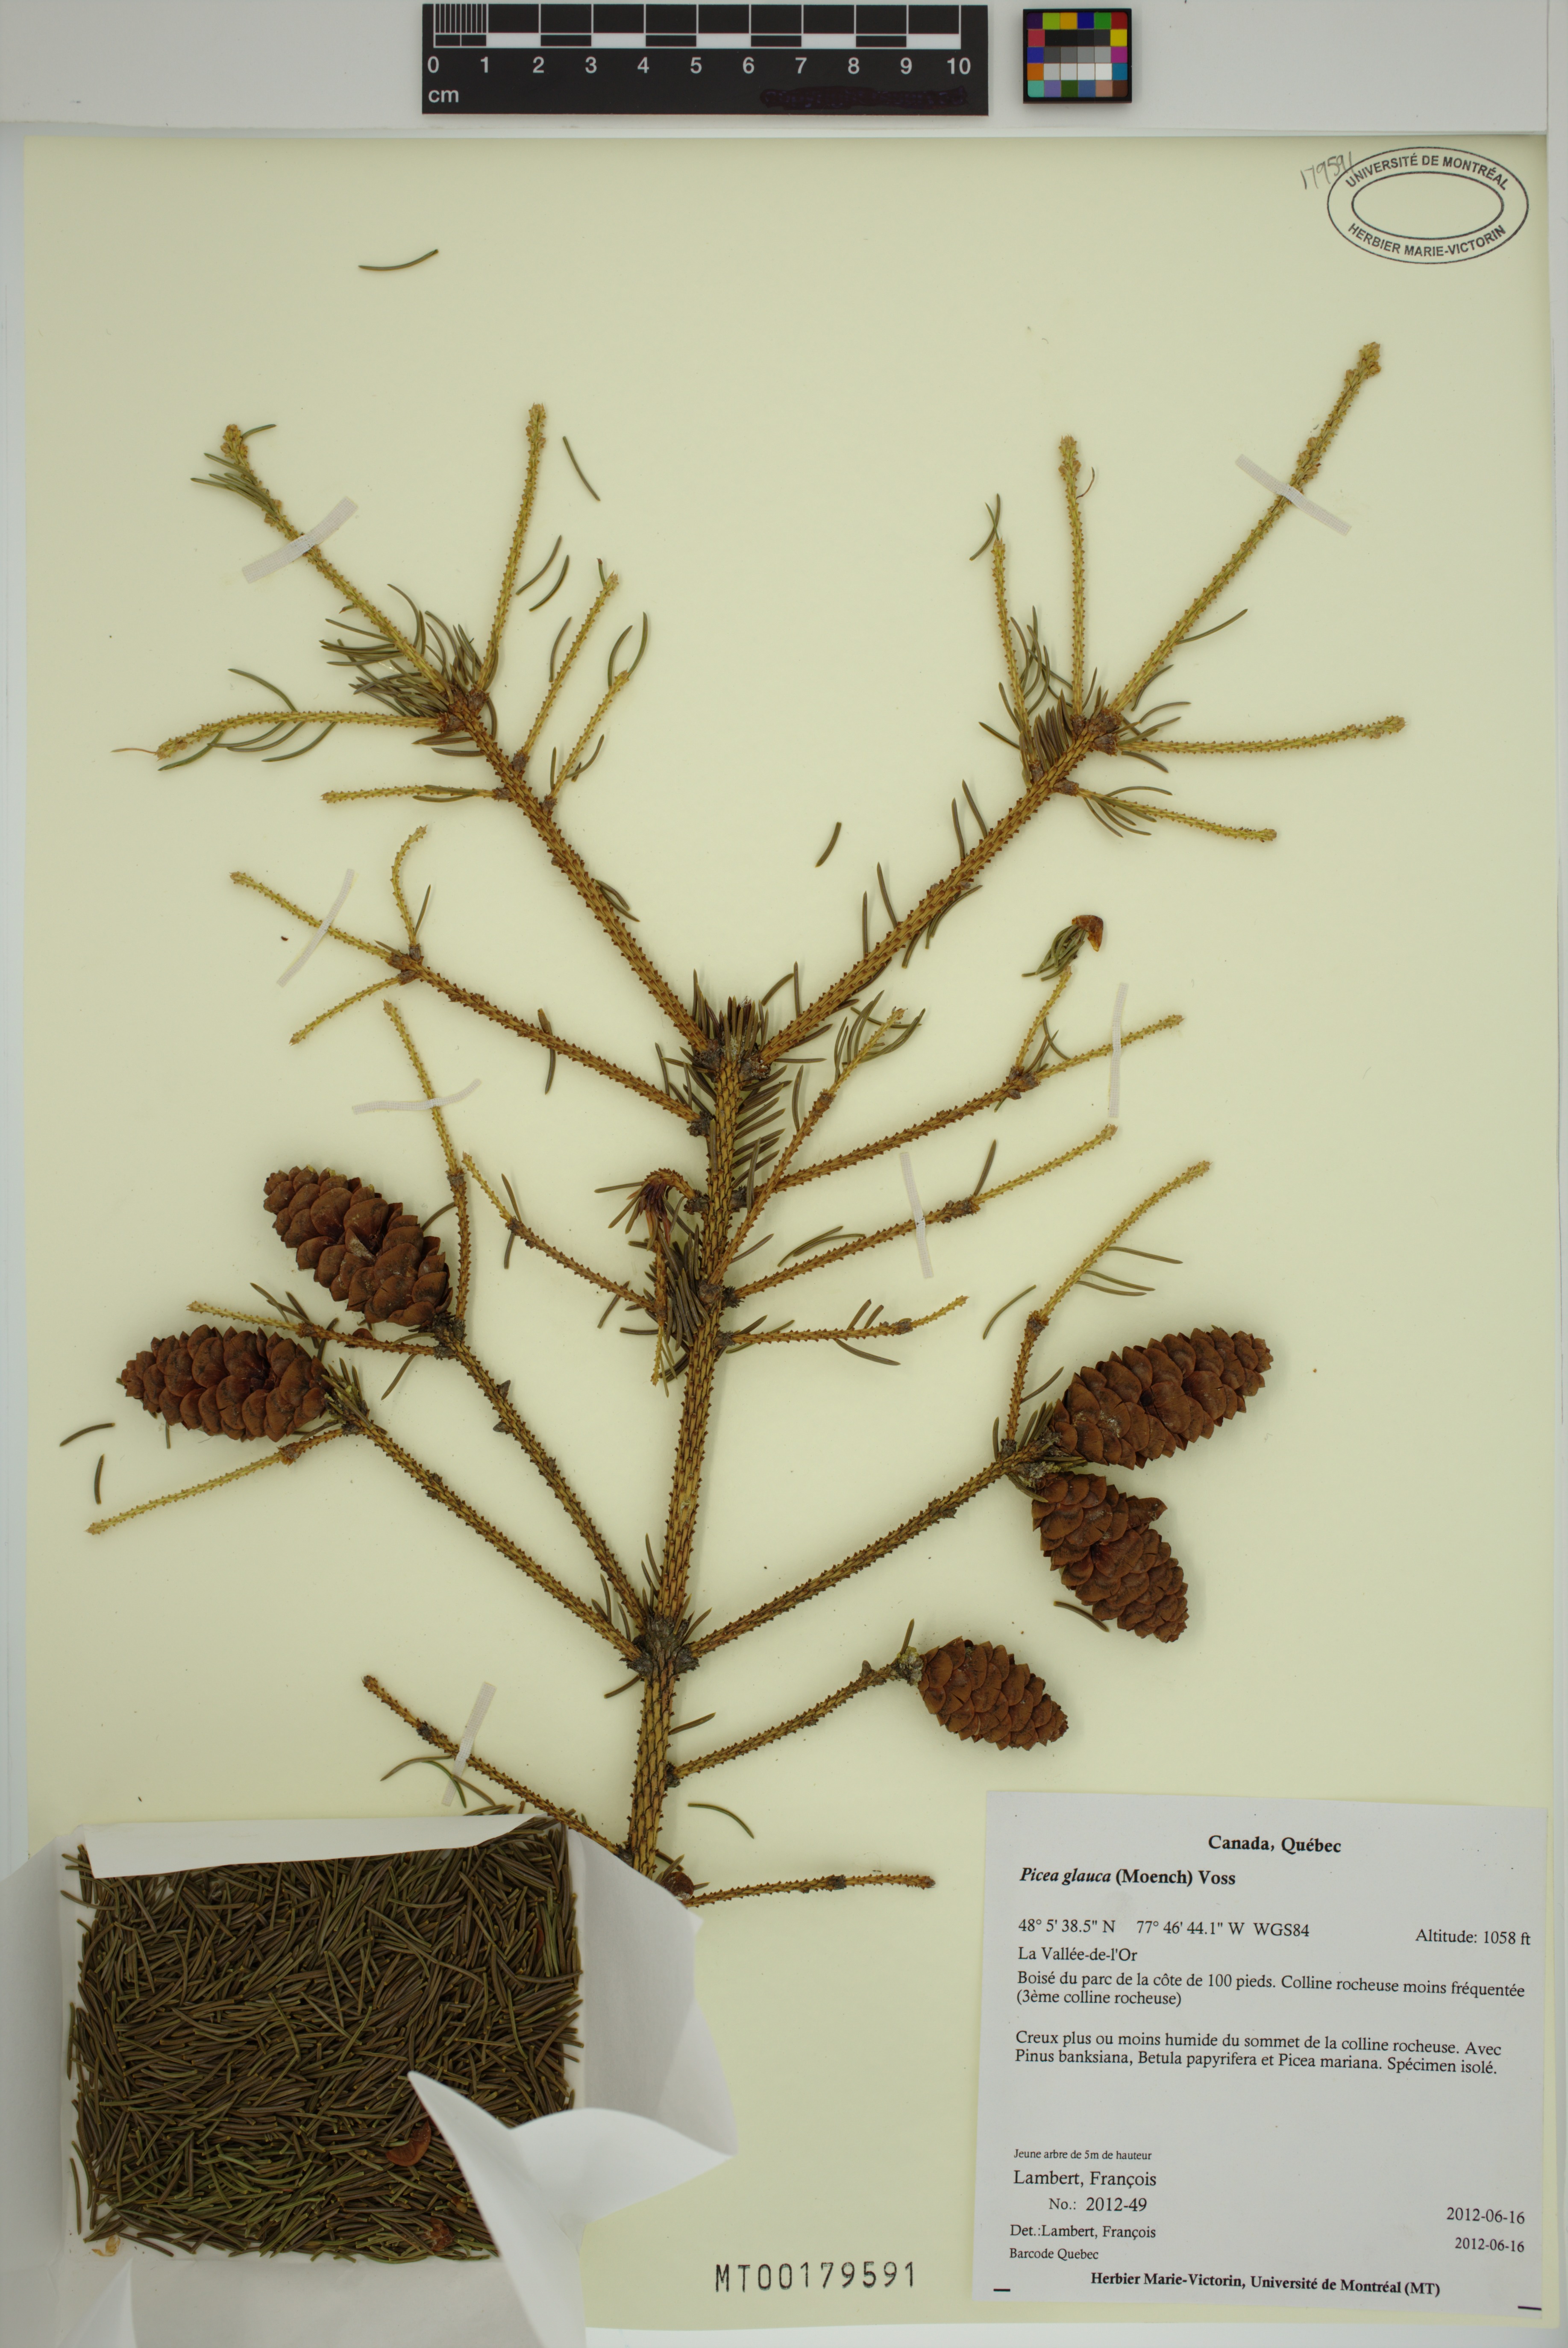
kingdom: Plantae
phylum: Tracheophyta
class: Pinopsida
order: Pinales
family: Pinaceae
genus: Picea
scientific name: Picea glauca
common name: White spruce
